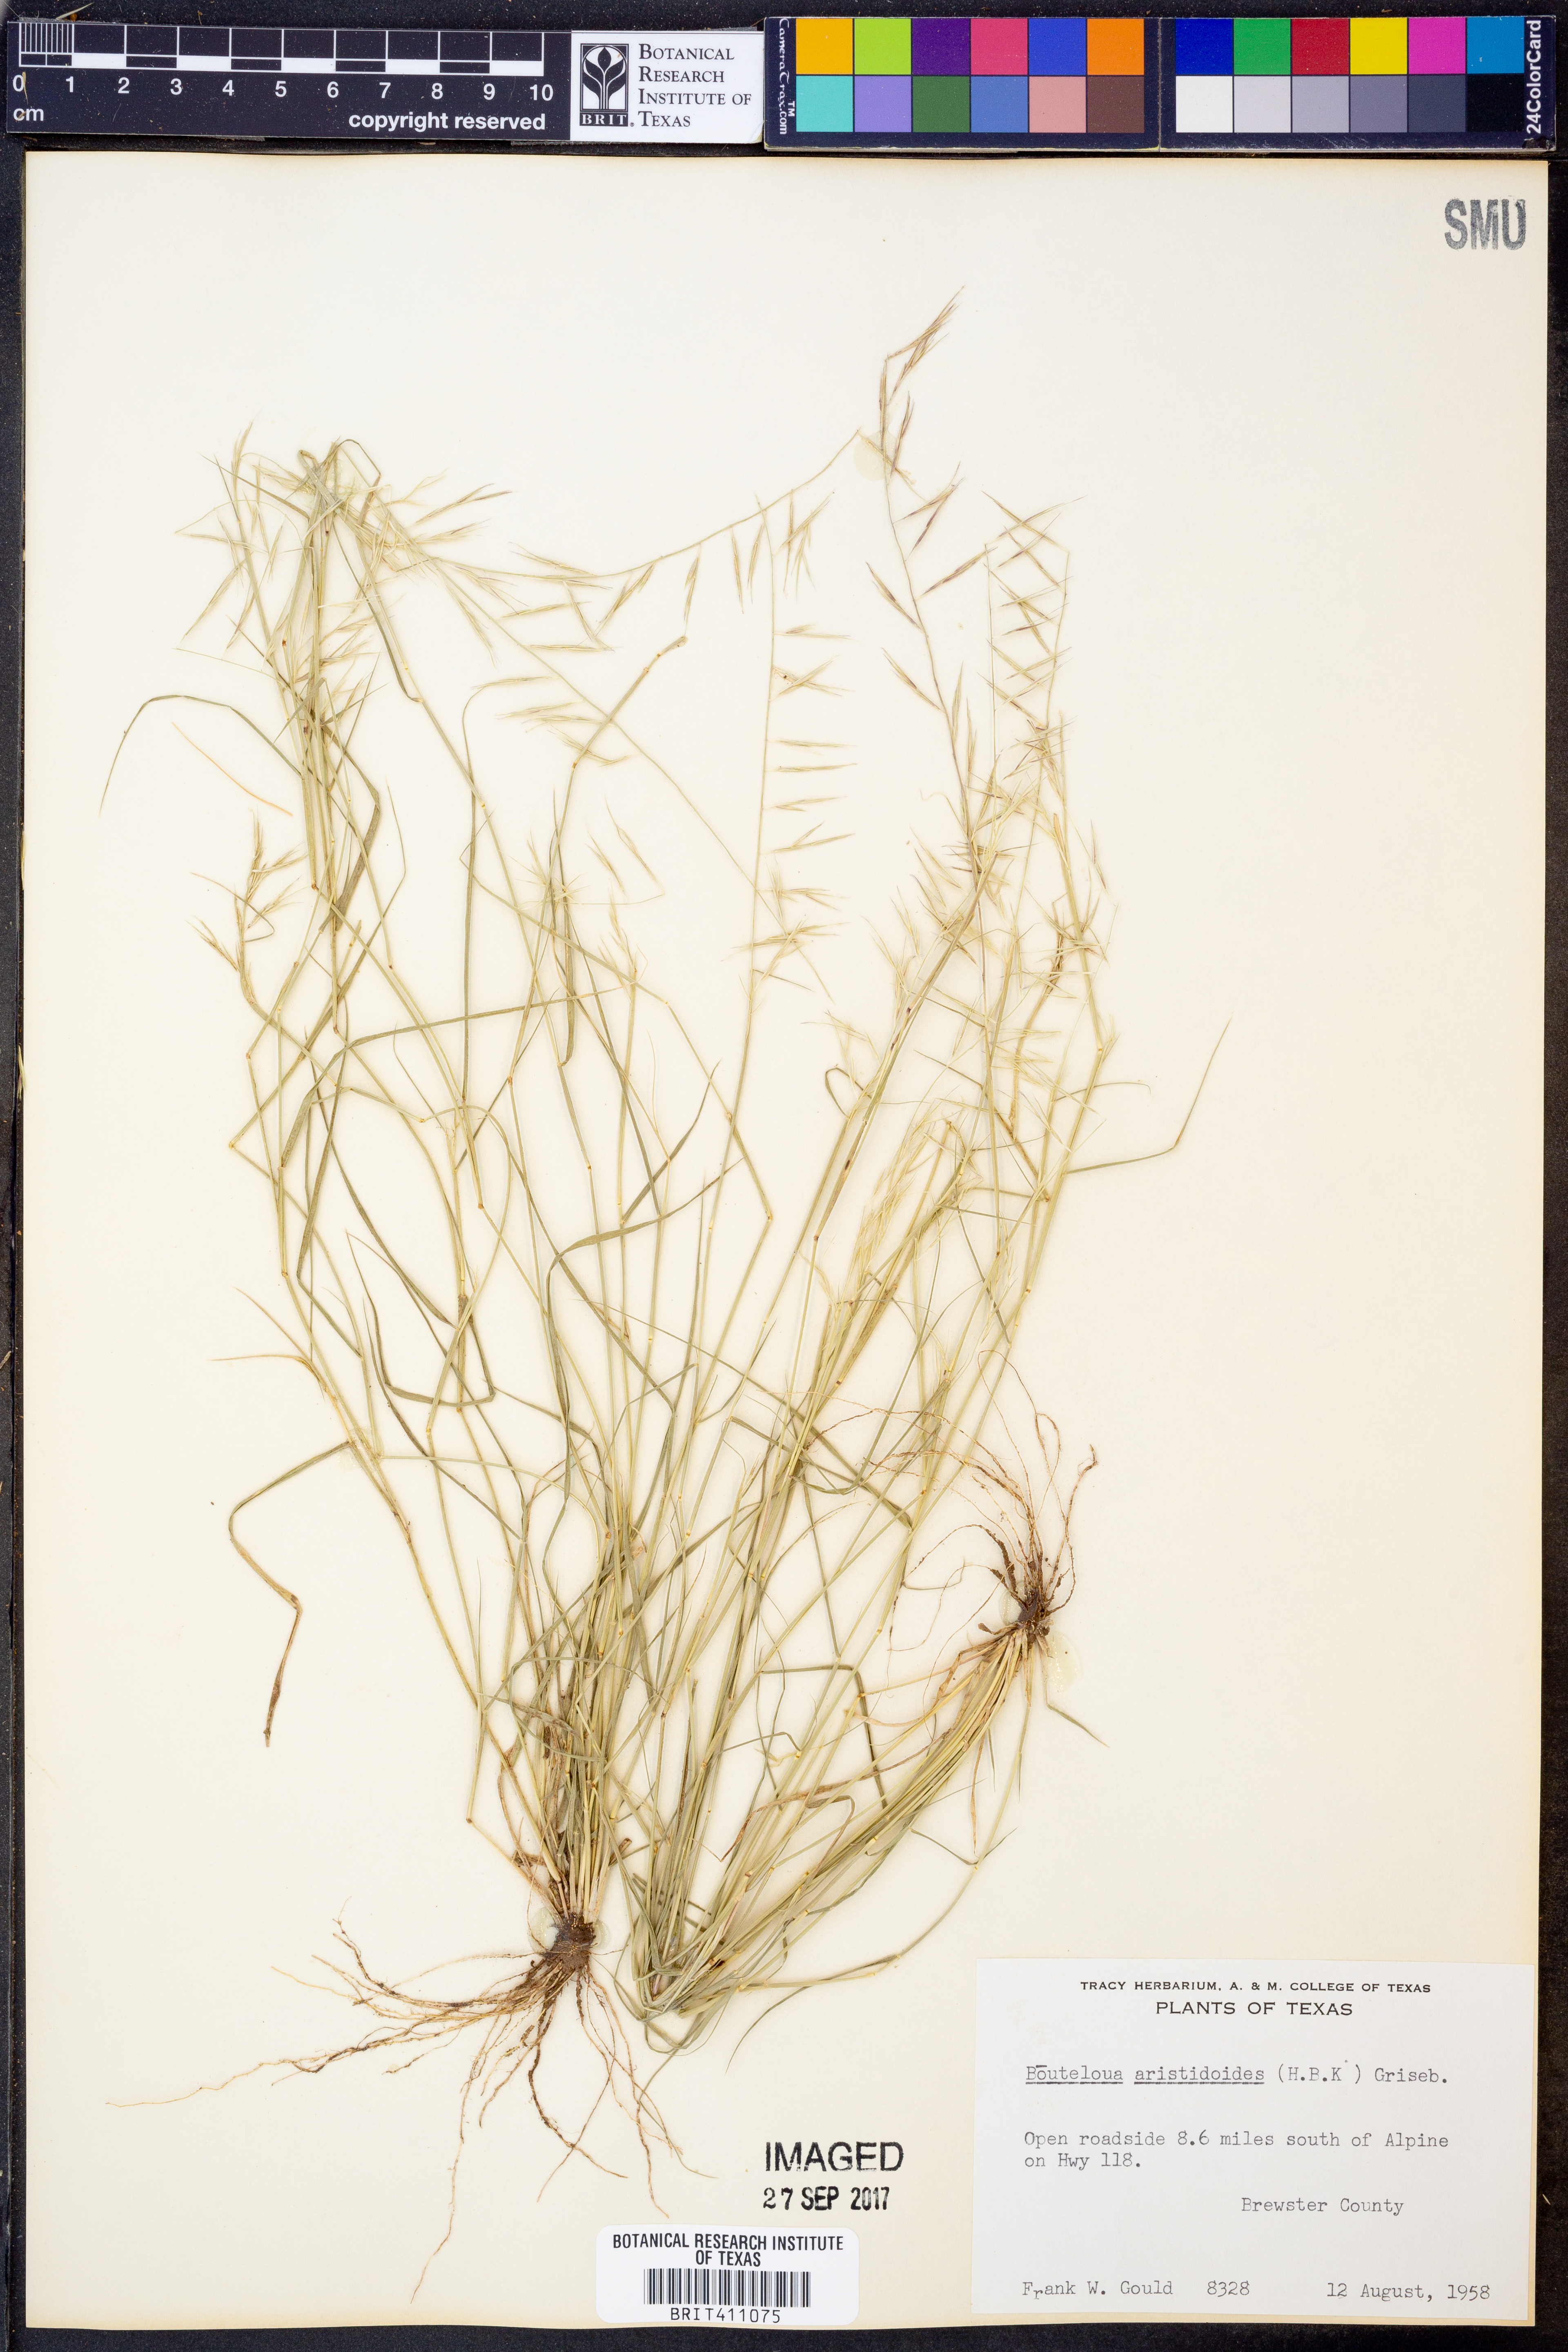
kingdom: Plantae
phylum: Tracheophyta
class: Liliopsida
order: Poales
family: Poaceae
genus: Bouteloua
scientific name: Bouteloua aristidoides
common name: Needle grama
